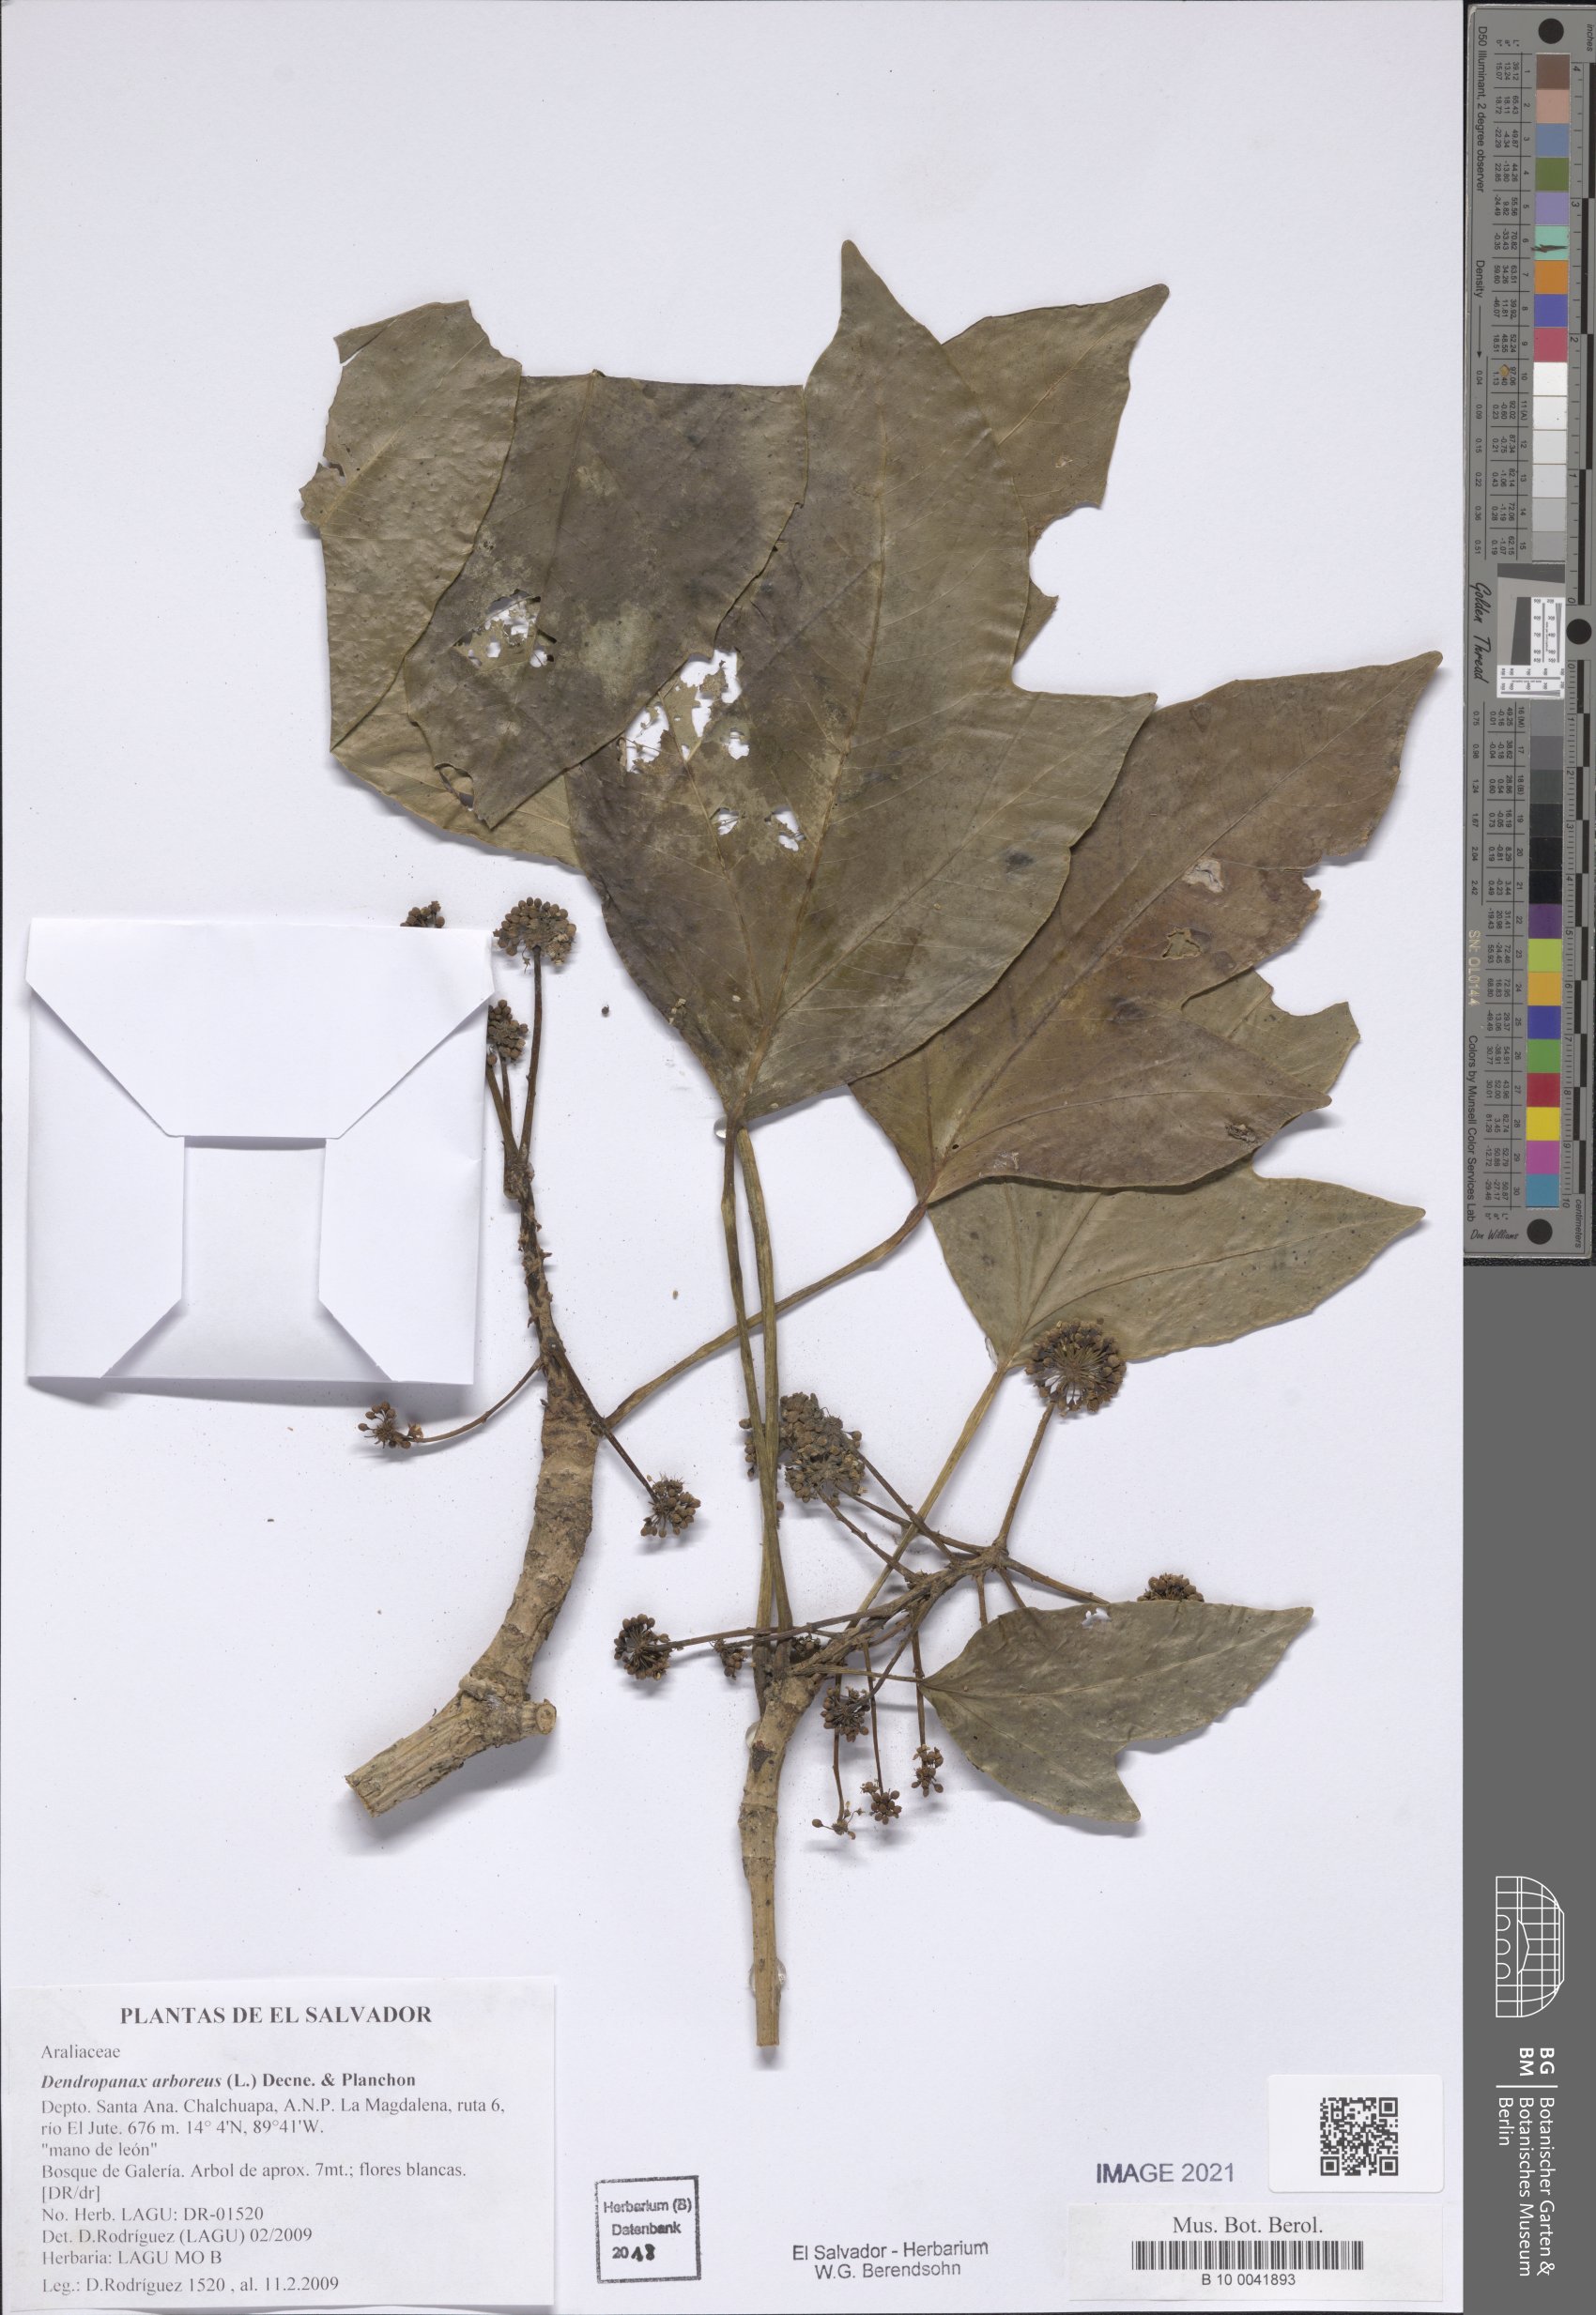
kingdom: Plantae
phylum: Tracheophyta
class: Magnoliopsida
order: Apiales
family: Araliaceae
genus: Dendropanax
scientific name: Dendropanax arboreus
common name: Potato-wood
